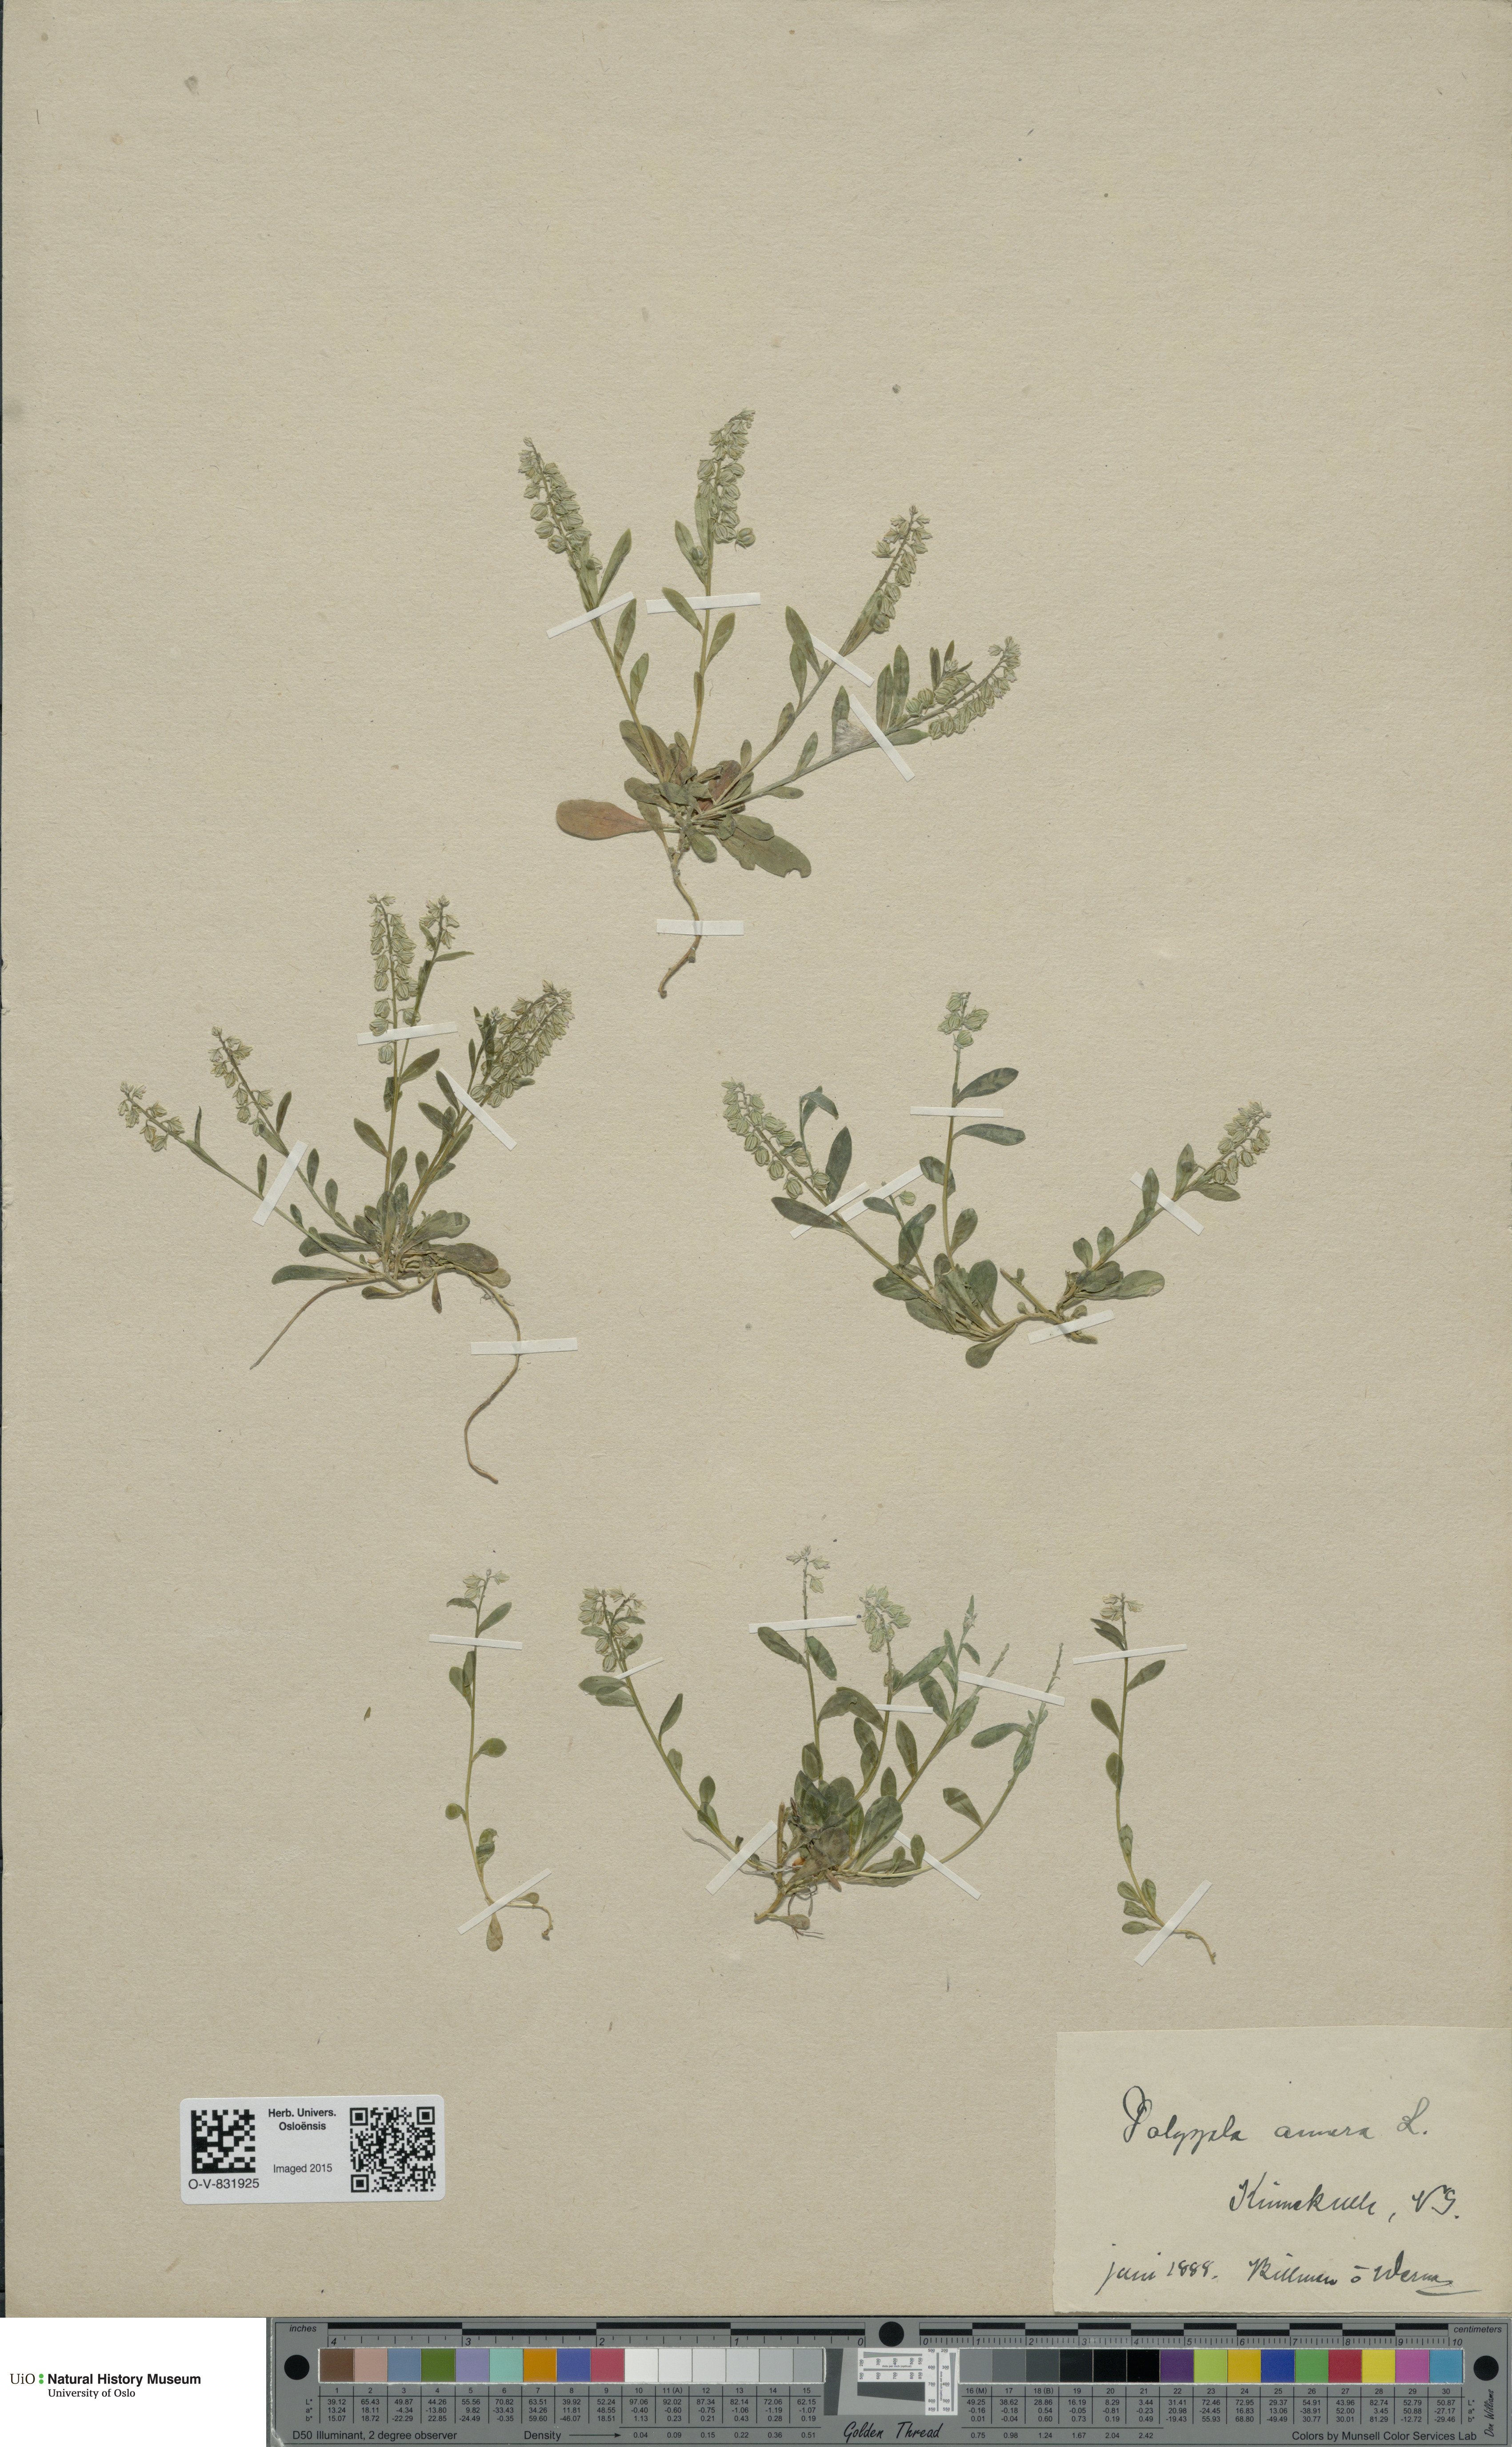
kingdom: Plantae
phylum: Tracheophyta
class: Magnoliopsida
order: Fabales
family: Polygalaceae
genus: Polygala
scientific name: Polygala amarella
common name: Dwarf milkwort
